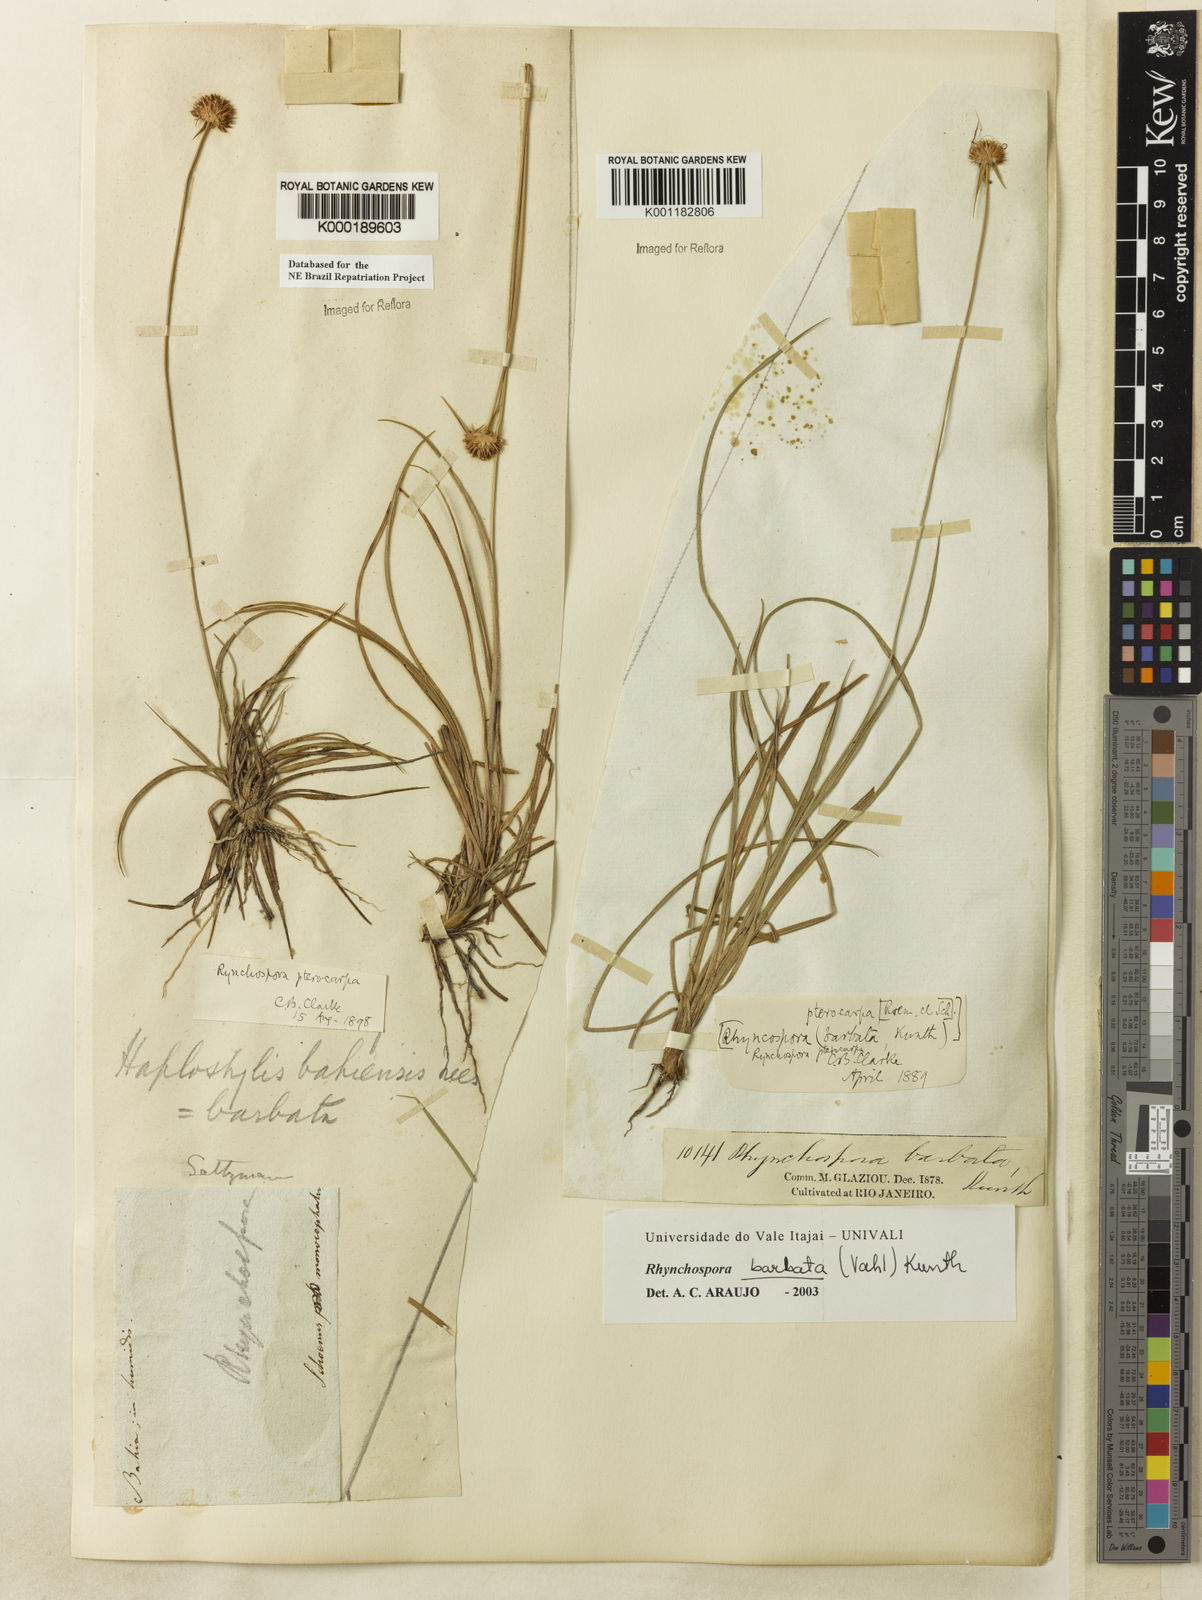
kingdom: Plantae
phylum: Tracheophyta
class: Liliopsida
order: Poales
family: Cyperaceae
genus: Rhynchospora
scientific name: Rhynchospora barbata
